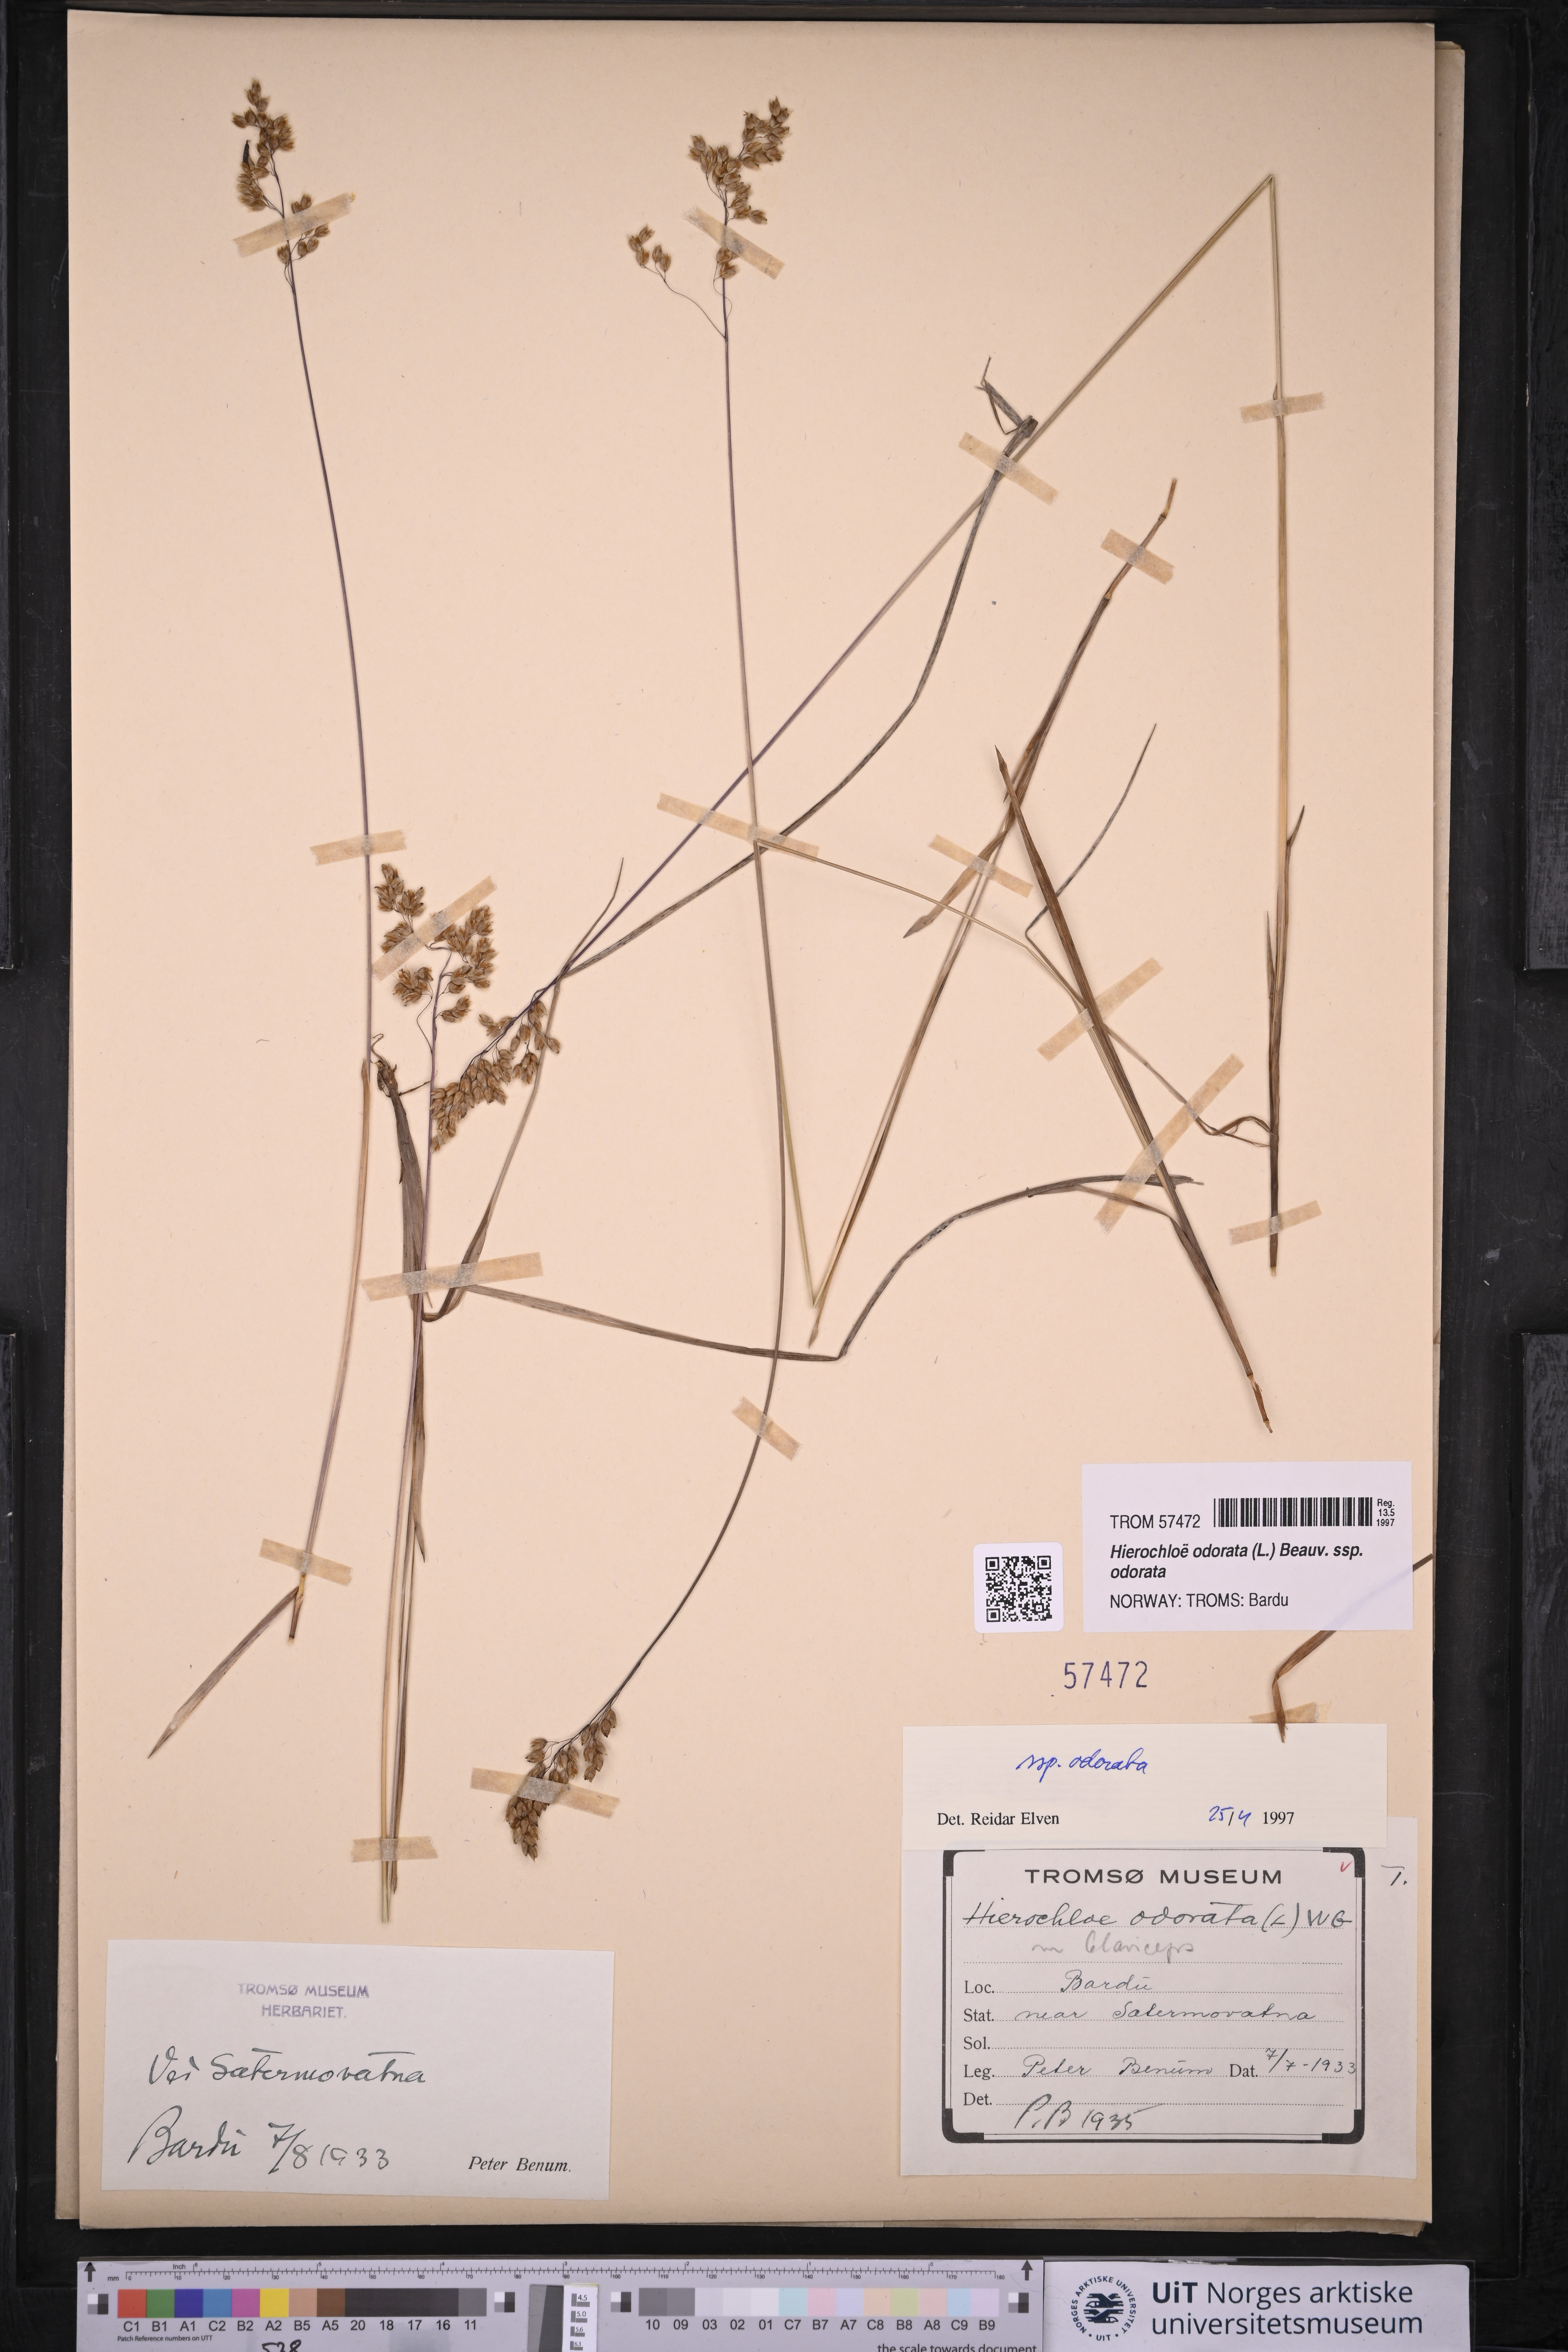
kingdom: Plantae
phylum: Tracheophyta
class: Liliopsida
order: Poales
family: Poaceae
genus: Anthoxanthum
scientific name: Anthoxanthum nitens
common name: Holy grass
